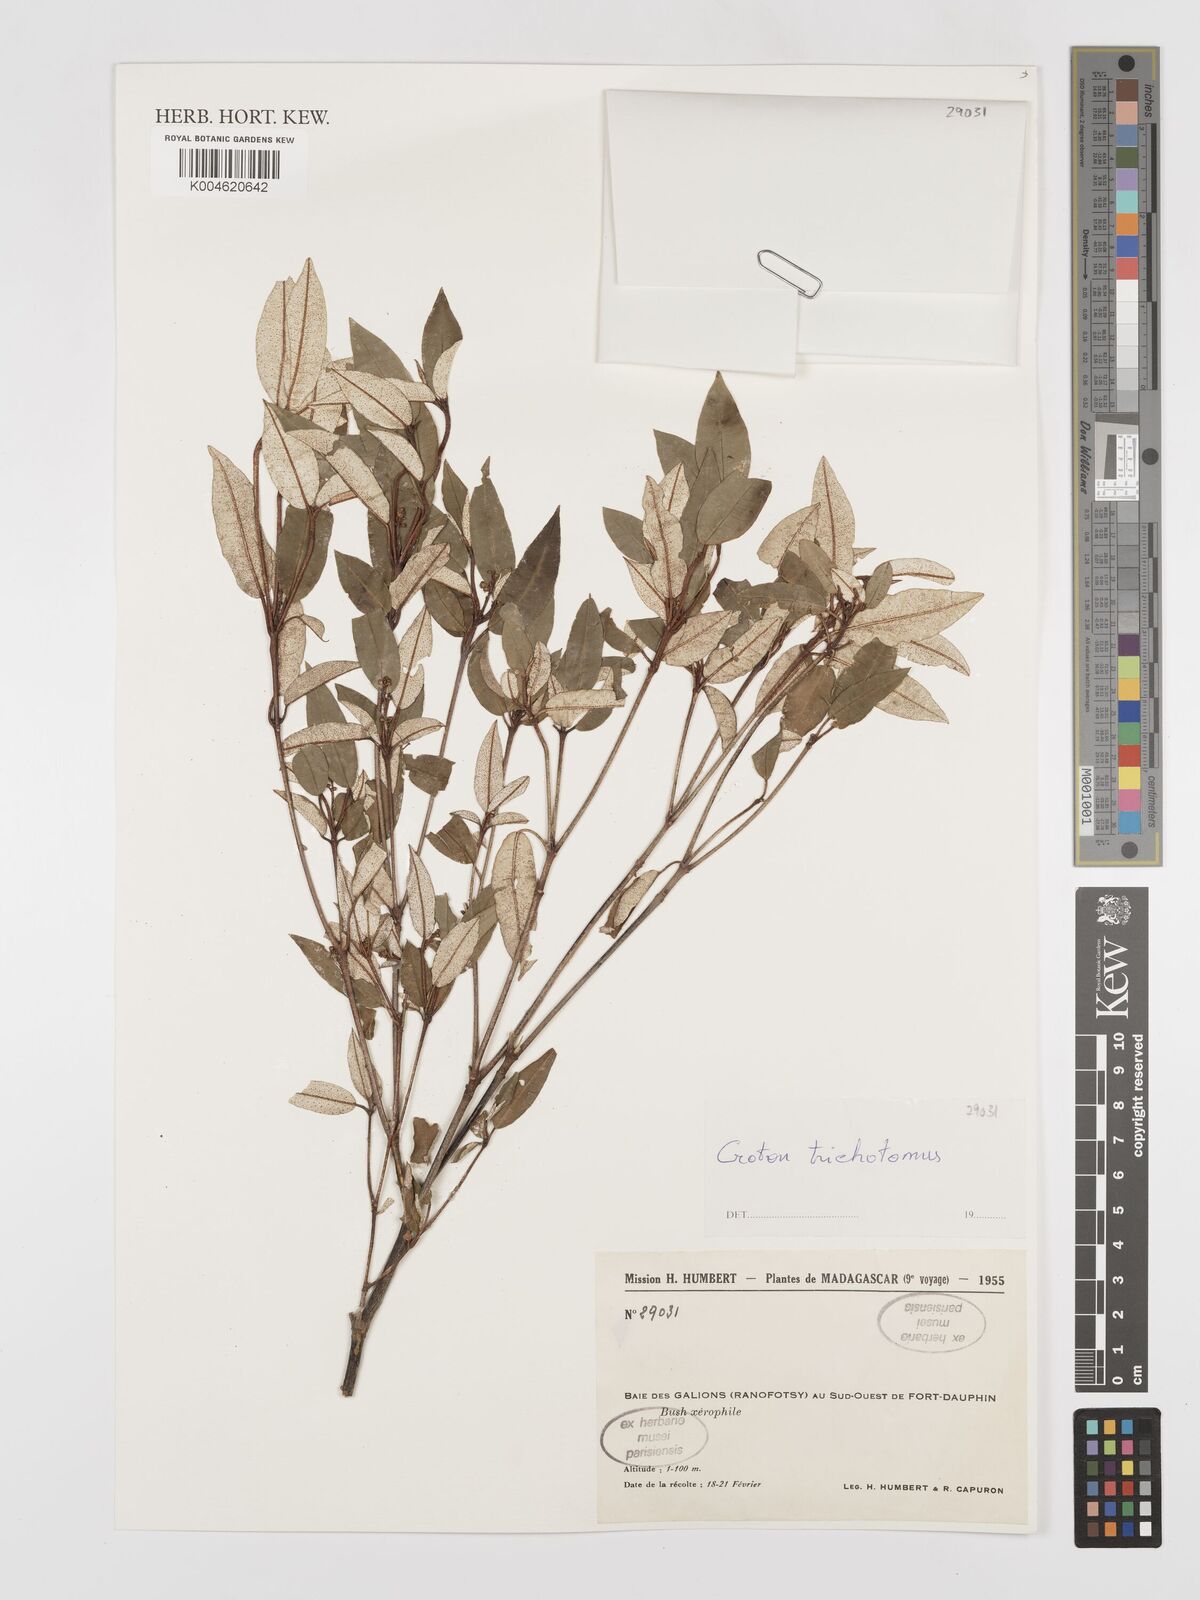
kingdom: Plantae
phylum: Tracheophyta
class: Magnoliopsida
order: Malpighiales
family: Euphorbiaceae
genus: Croton
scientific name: Croton trichotomus
